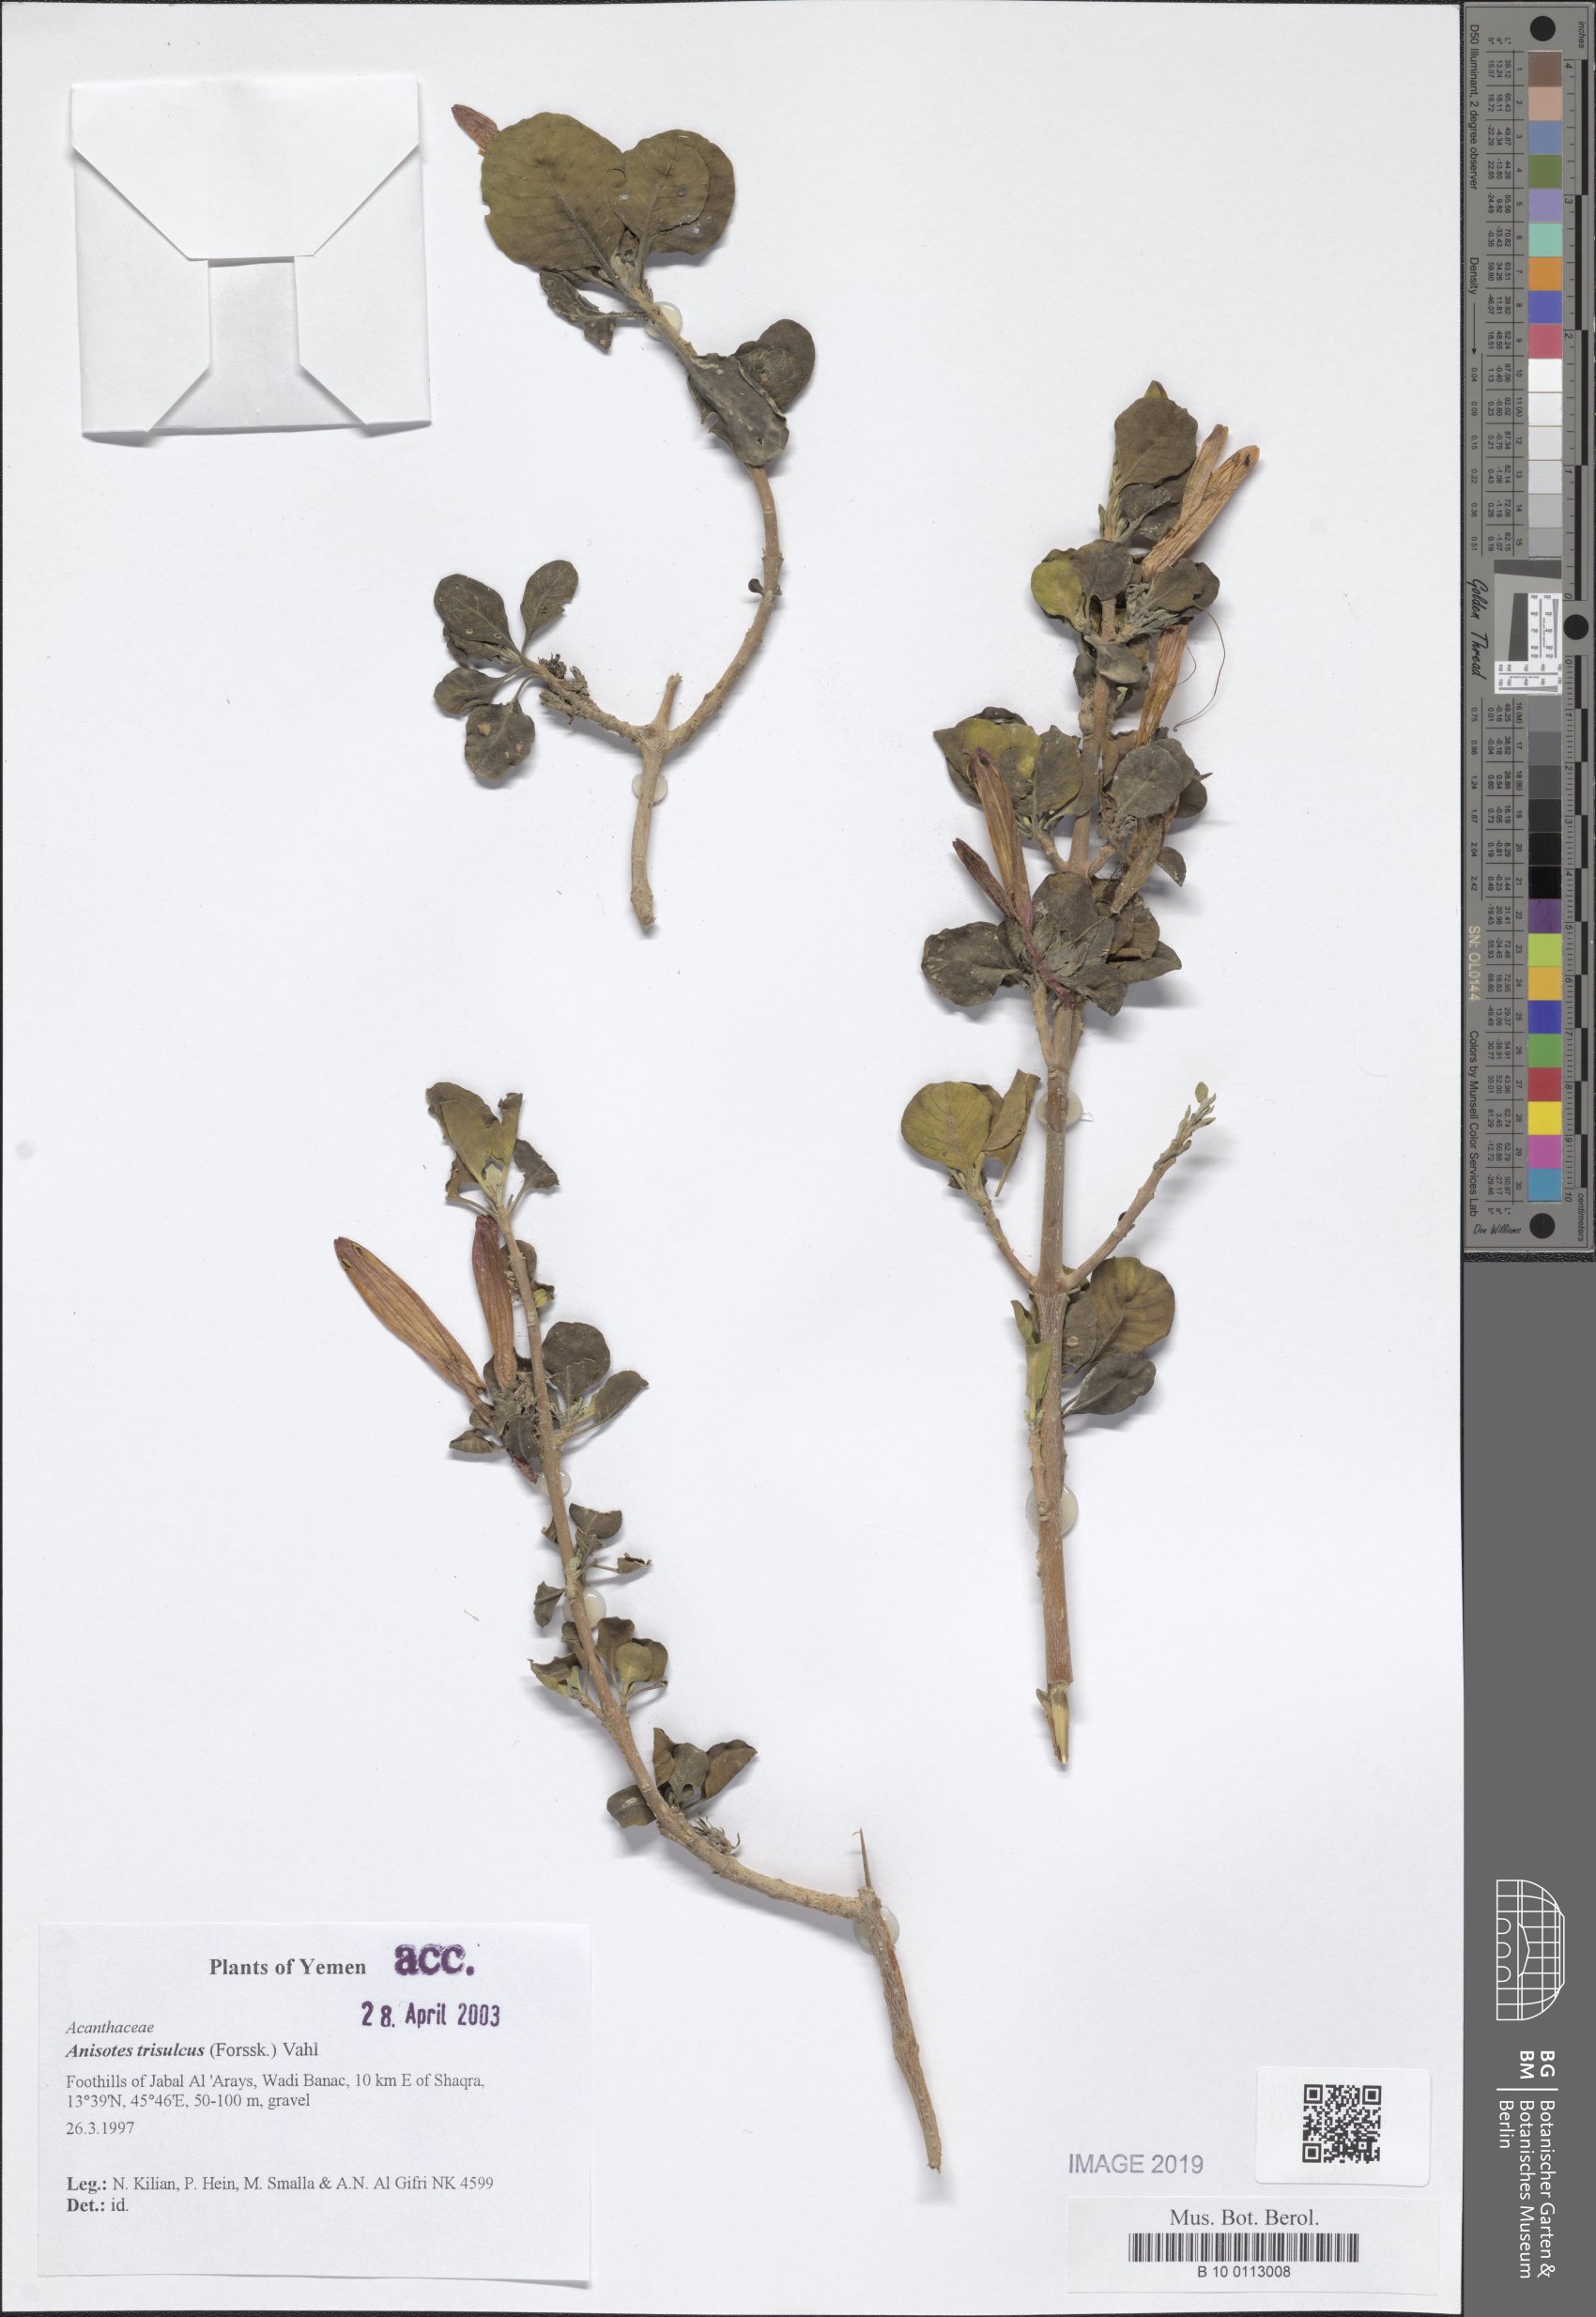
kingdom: Plantae
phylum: Tracheophyta
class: Magnoliopsida
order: Lamiales
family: Acanthaceae
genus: Anisotes
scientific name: Anisotes trisulcus
